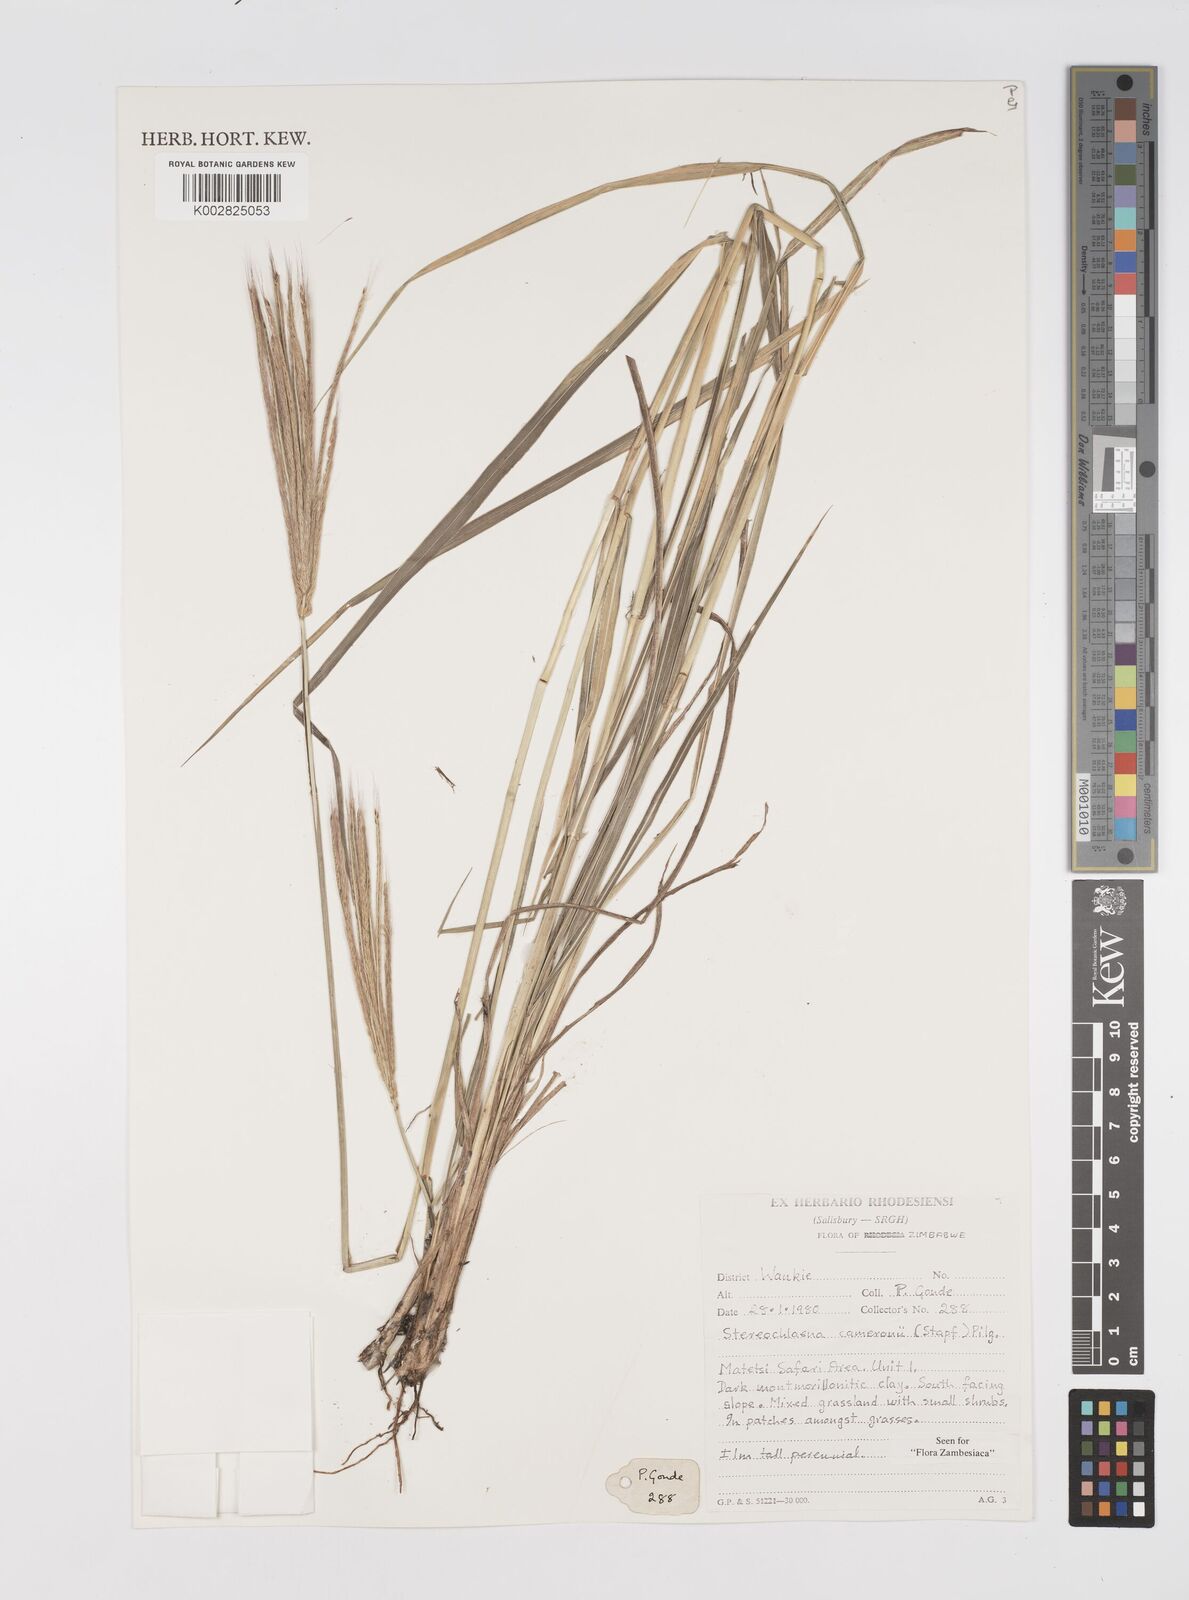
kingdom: Plantae
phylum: Tracheophyta
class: Liliopsida
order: Poales
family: Poaceae
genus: Stereochlaena
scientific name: Stereochlaena cameronii
